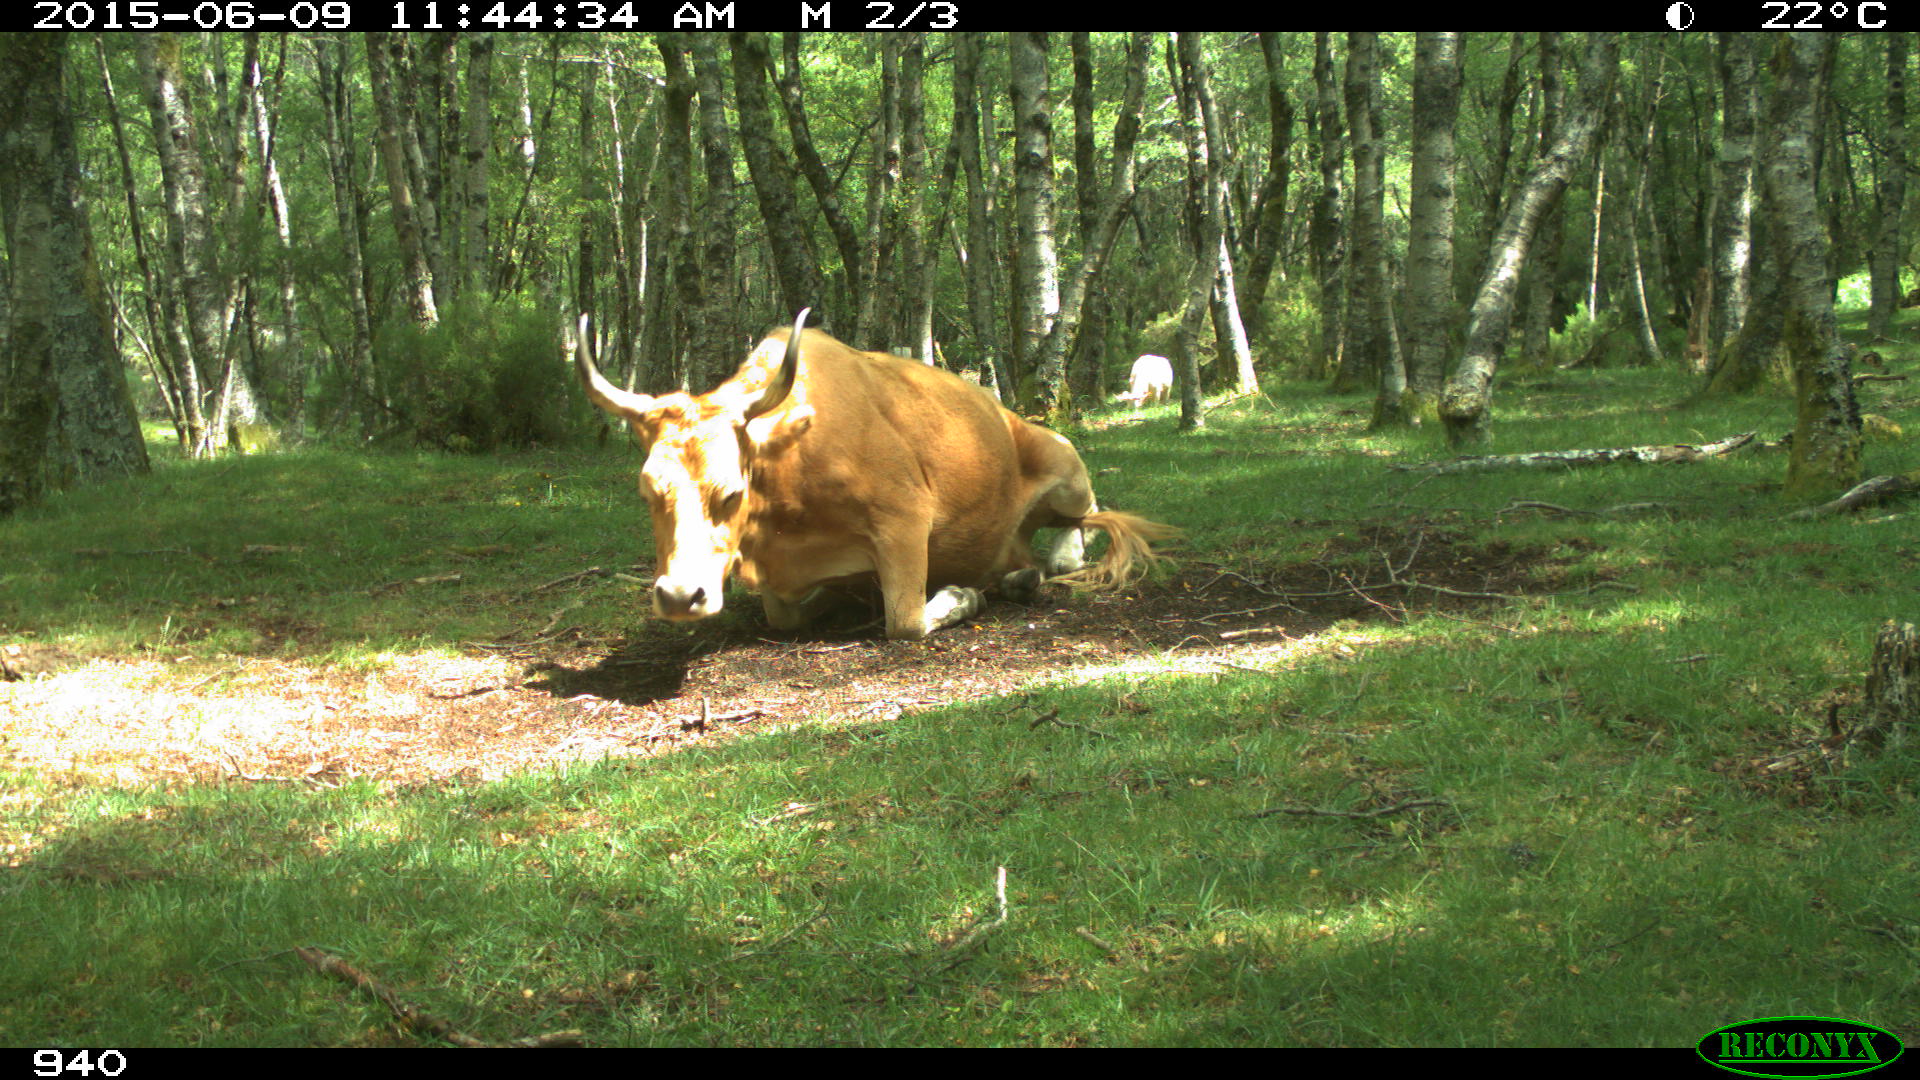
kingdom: Animalia
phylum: Chordata
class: Mammalia
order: Artiodactyla
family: Bovidae
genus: Bos
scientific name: Bos taurus
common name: Domesticated cattle
